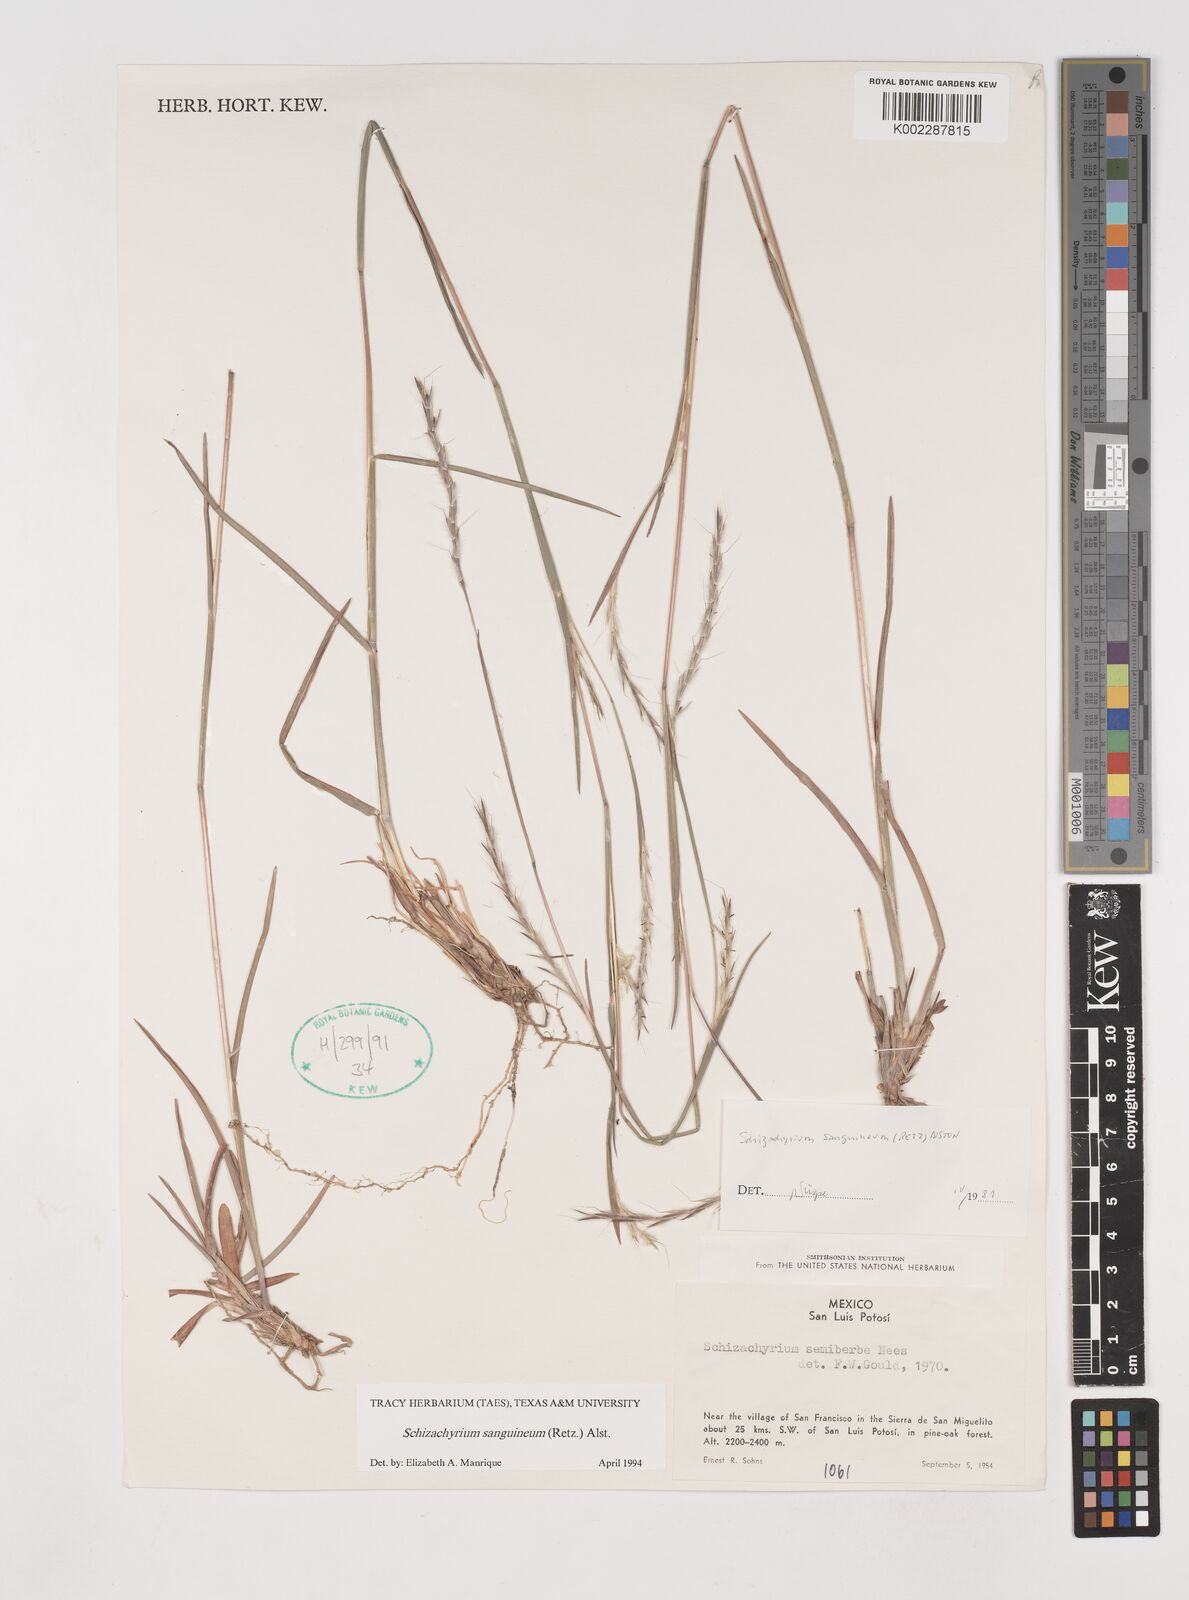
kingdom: Plantae
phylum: Tracheophyta
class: Liliopsida
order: Poales
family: Poaceae
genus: Schizachyrium
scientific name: Schizachyrium sanguineum
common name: Crimson bluestem
